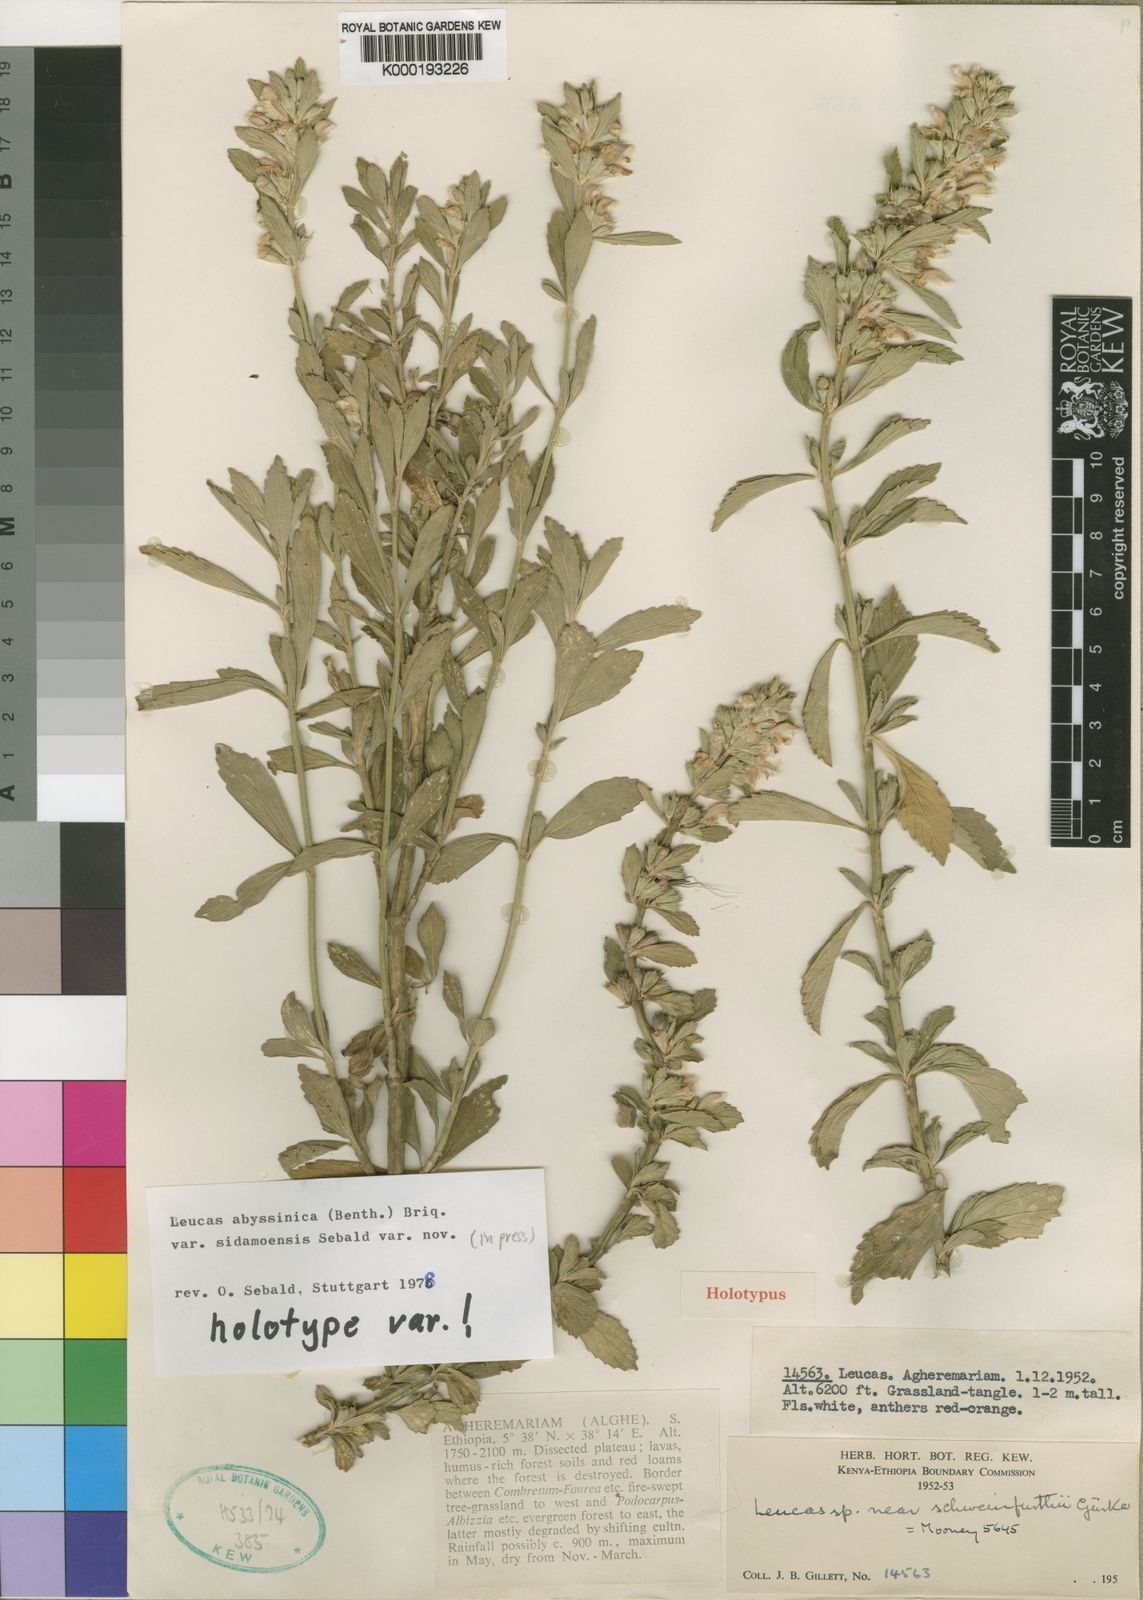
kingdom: Plantae
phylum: Tracheophyta
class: Magnoliopsida
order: Lamiales
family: Lamiaceae
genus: Leucas
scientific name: Leucas
